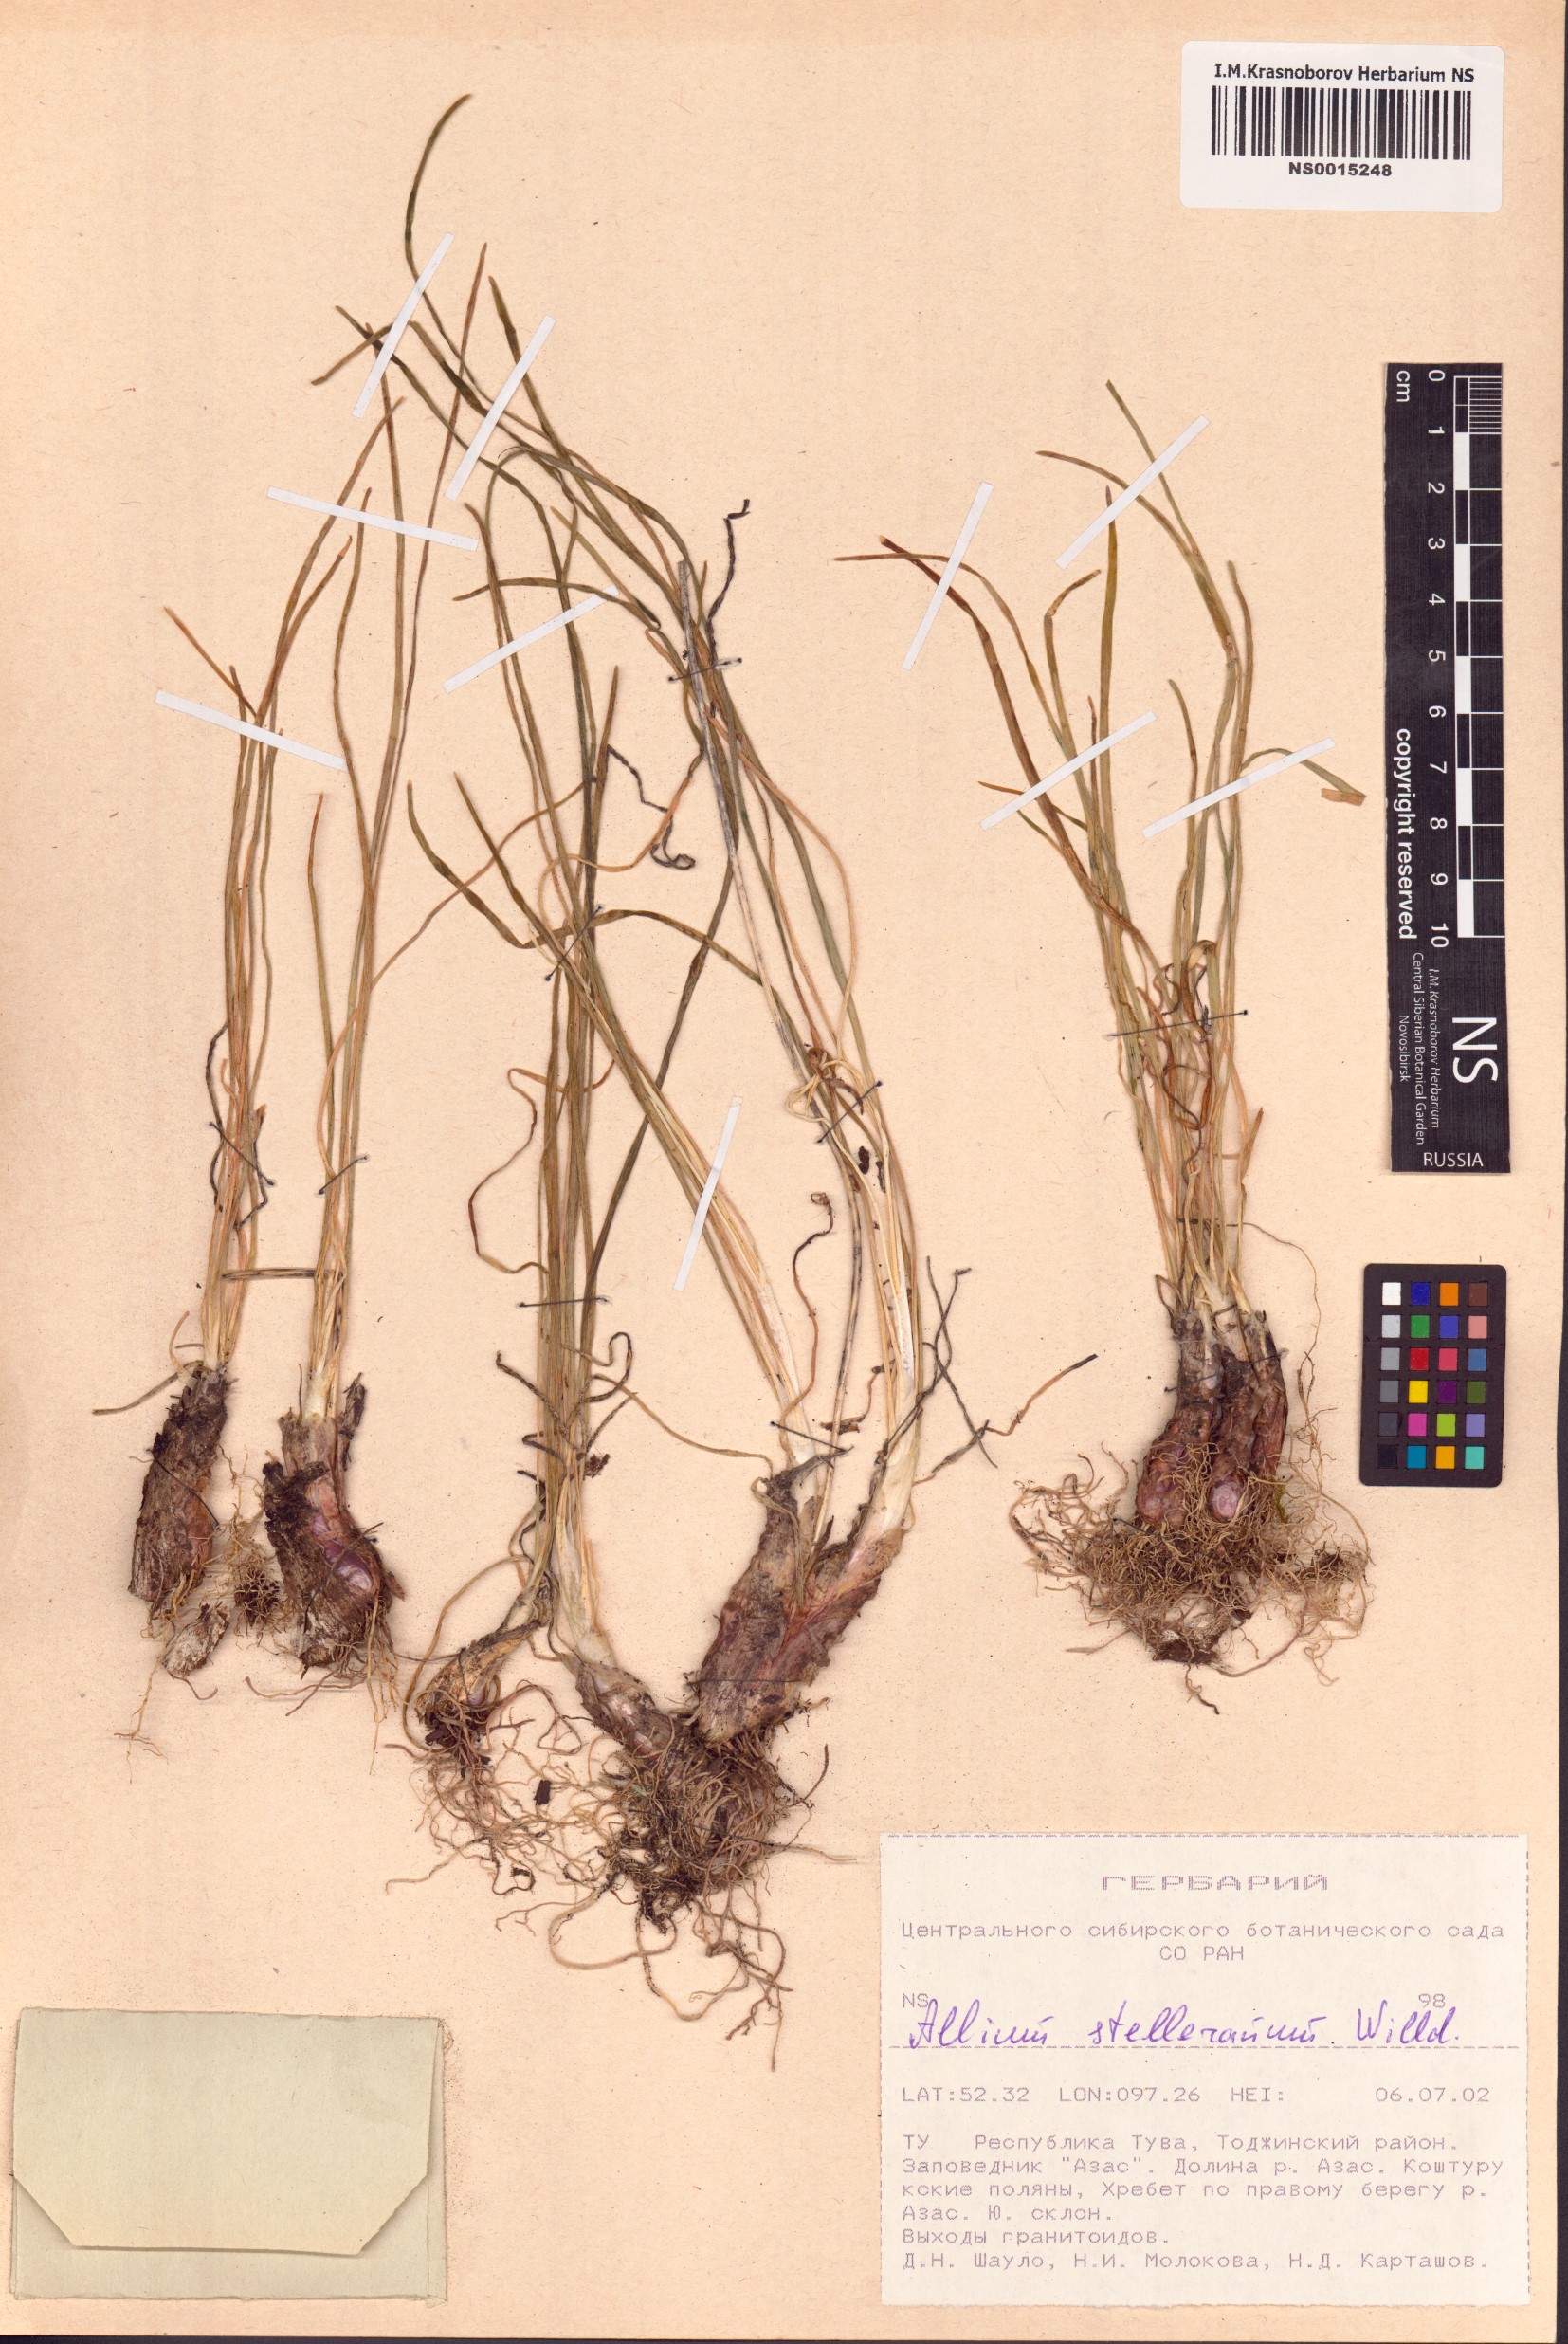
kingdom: Plantae
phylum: Tracheophyta
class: Liliopsida
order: Asparagales
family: Amaryllidaceae
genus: Allium
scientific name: Allium stellerianum
